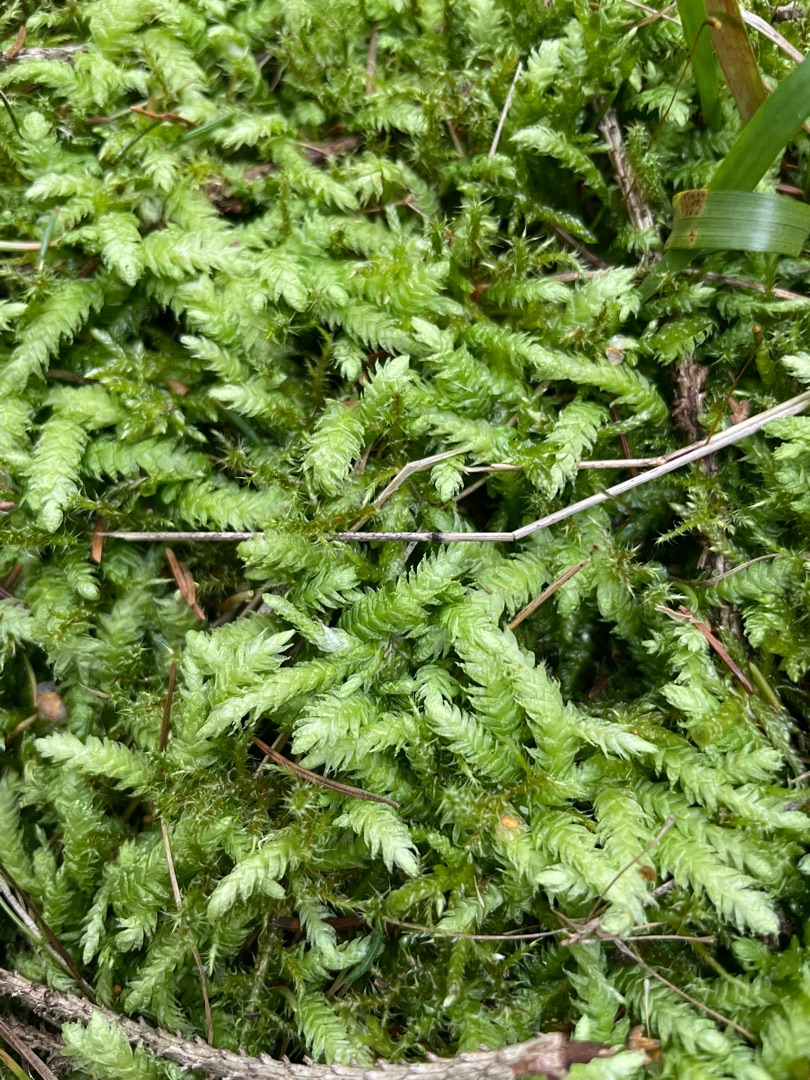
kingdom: Plantae
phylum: Bryophyta
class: Bryopsida
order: Hypnales
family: Plagiotheciaceae
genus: Plagiothecium
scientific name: Plagiothecium undulatum
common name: Bølget tæppemos
